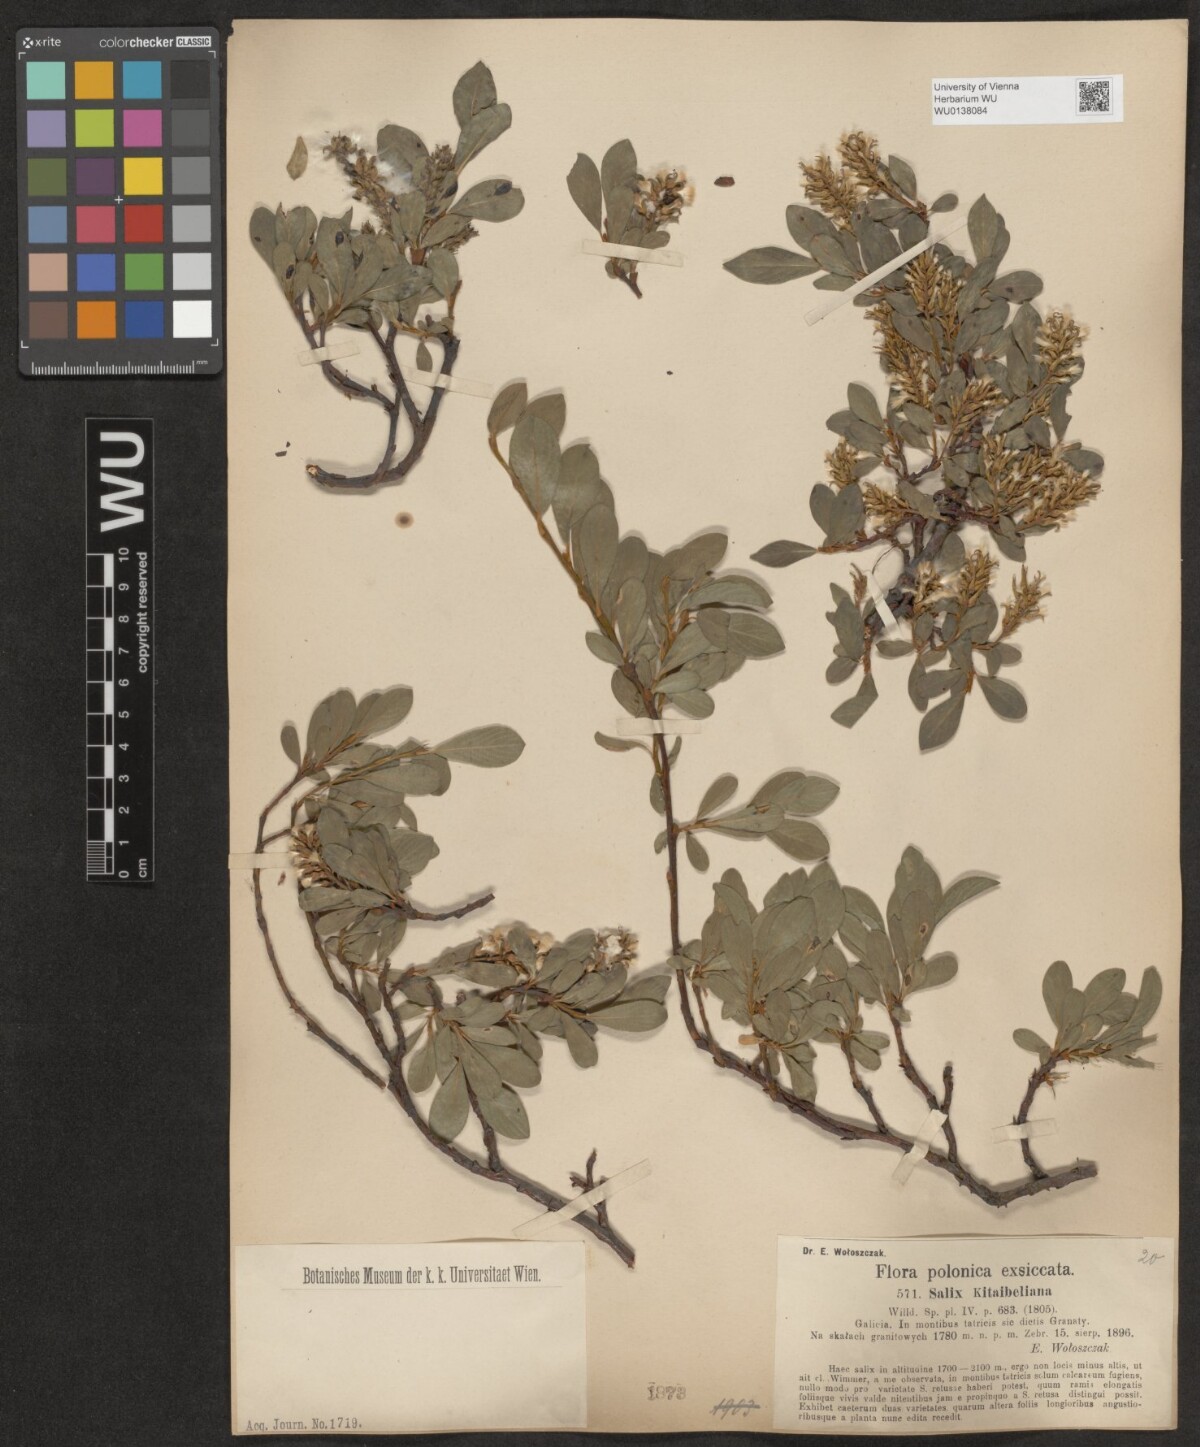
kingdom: Plantae
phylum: Tracheophyta
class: Magnoliopsida
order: Malpighiales
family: Salicaceae
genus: Salix
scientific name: Salix retusa
